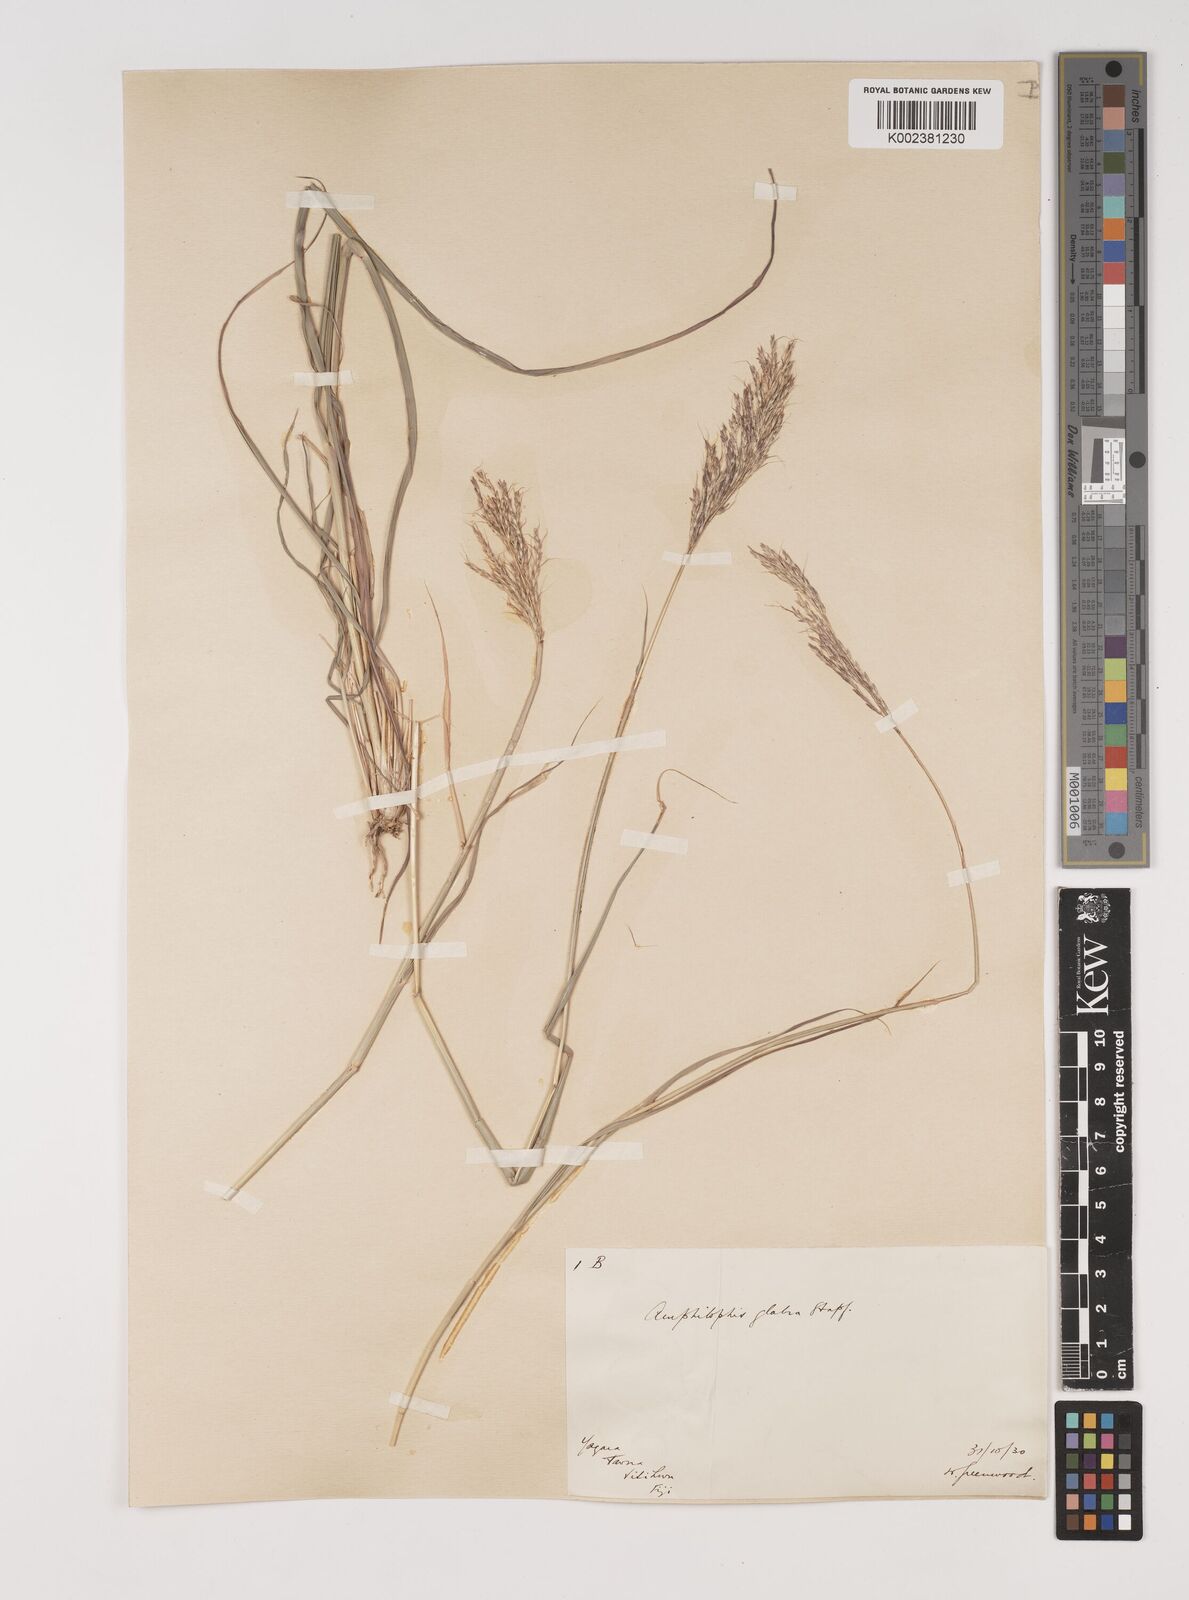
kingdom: Plantae
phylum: Tracheophyta
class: Liliopsida
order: Poales
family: Poaceae
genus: Bothriochloa
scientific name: Bothriochloa bladhii
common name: Caucasian bluestem
